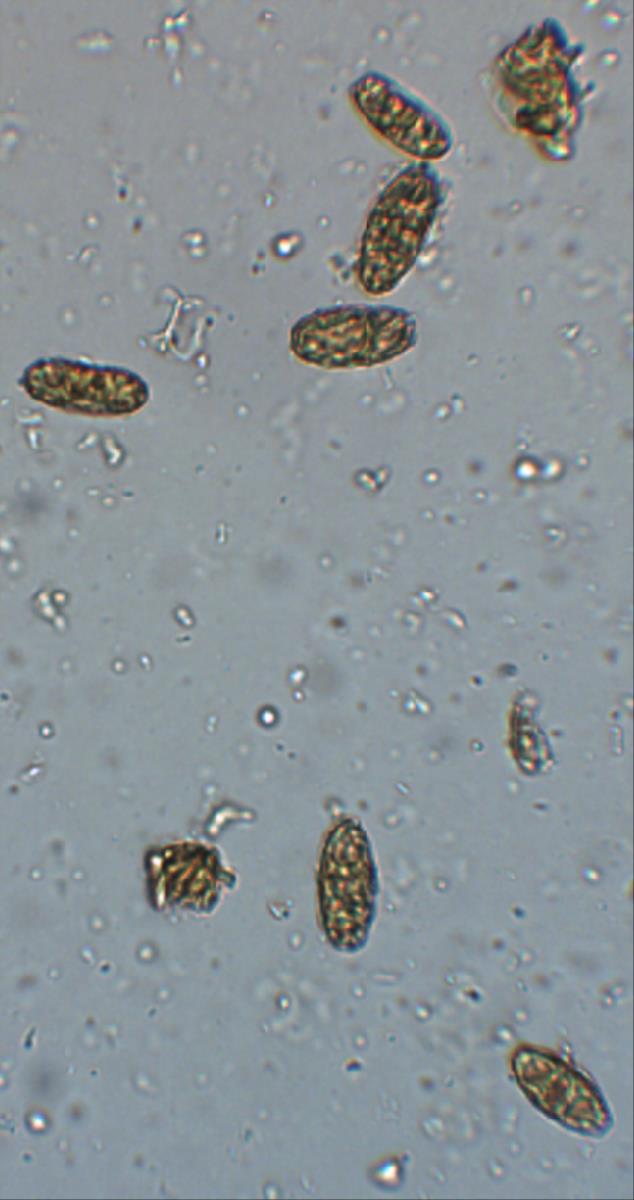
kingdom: Fungi
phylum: Ascomycota
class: Pezizomycetes
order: Pezizales
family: Pezizaceae
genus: Legaliana
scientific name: Legaliana badia
